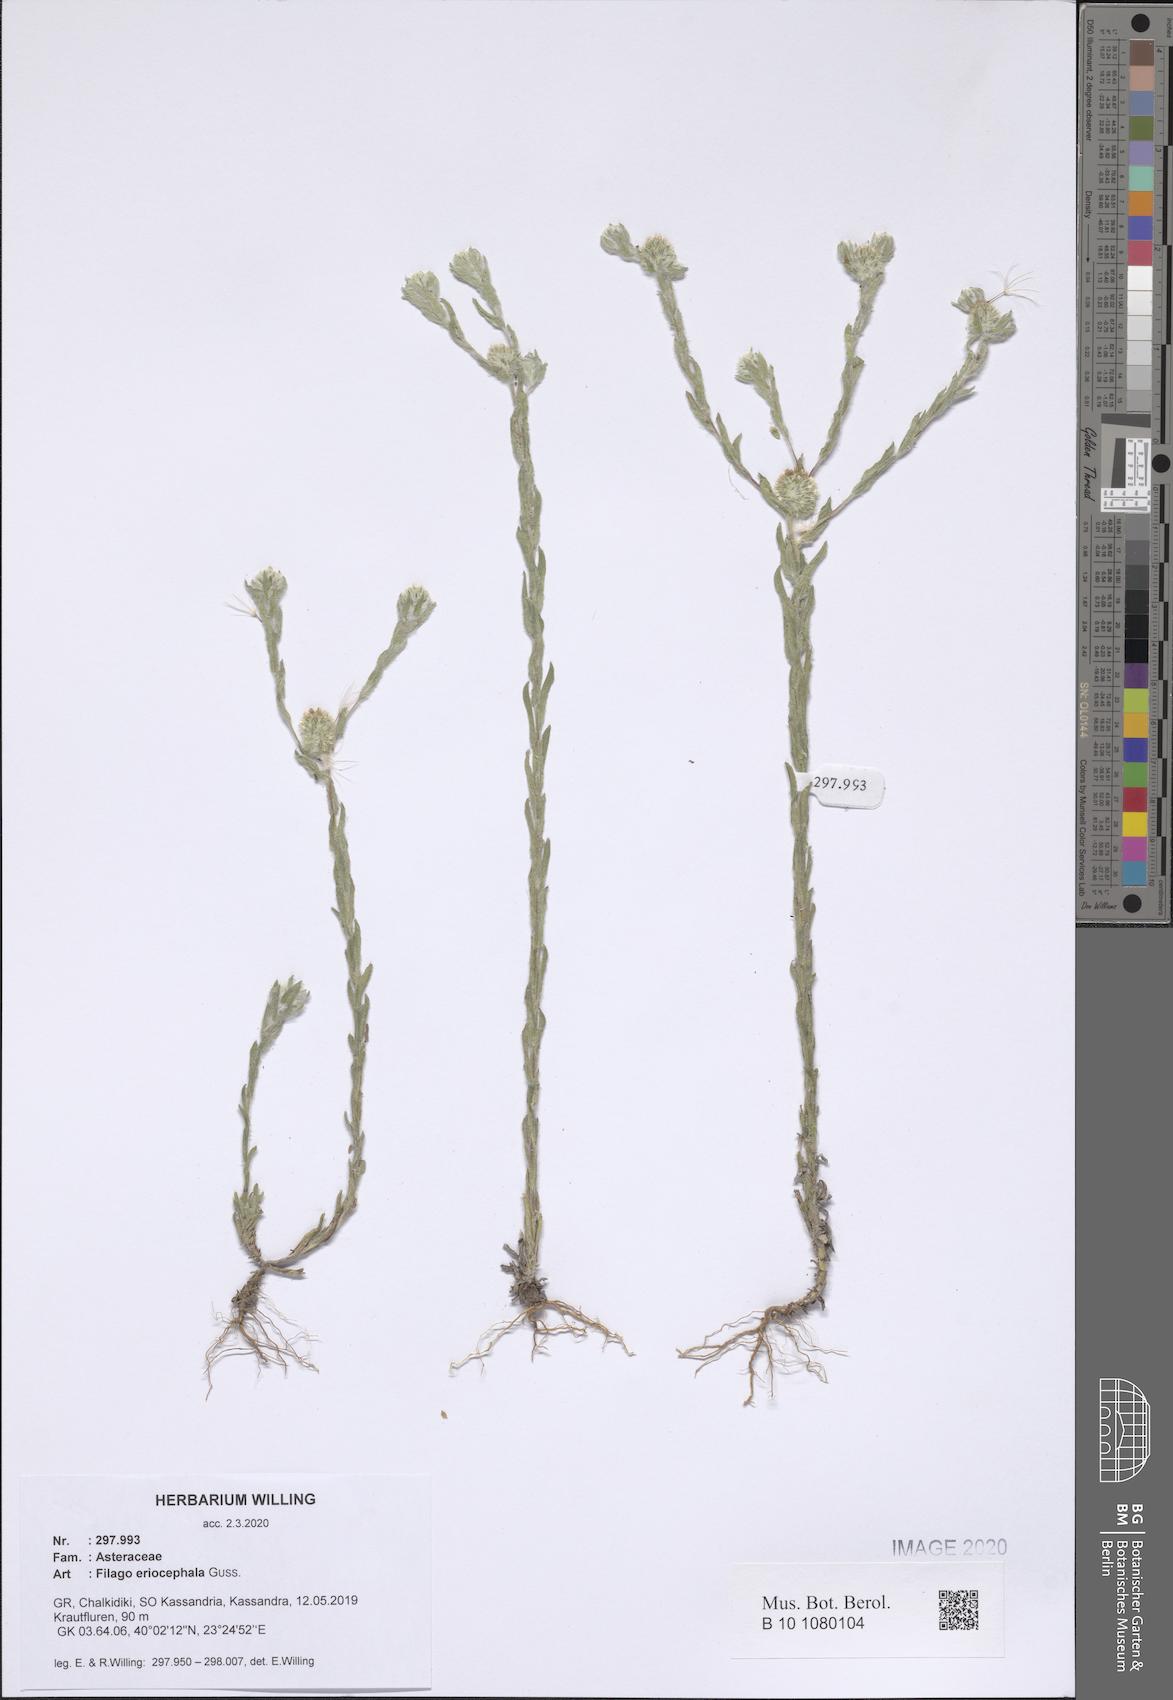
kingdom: Plantae
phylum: Tracheophyta
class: Magnoliopsida
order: Asterales
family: Asteraceae
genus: Filago
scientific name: Filago eriocephala
